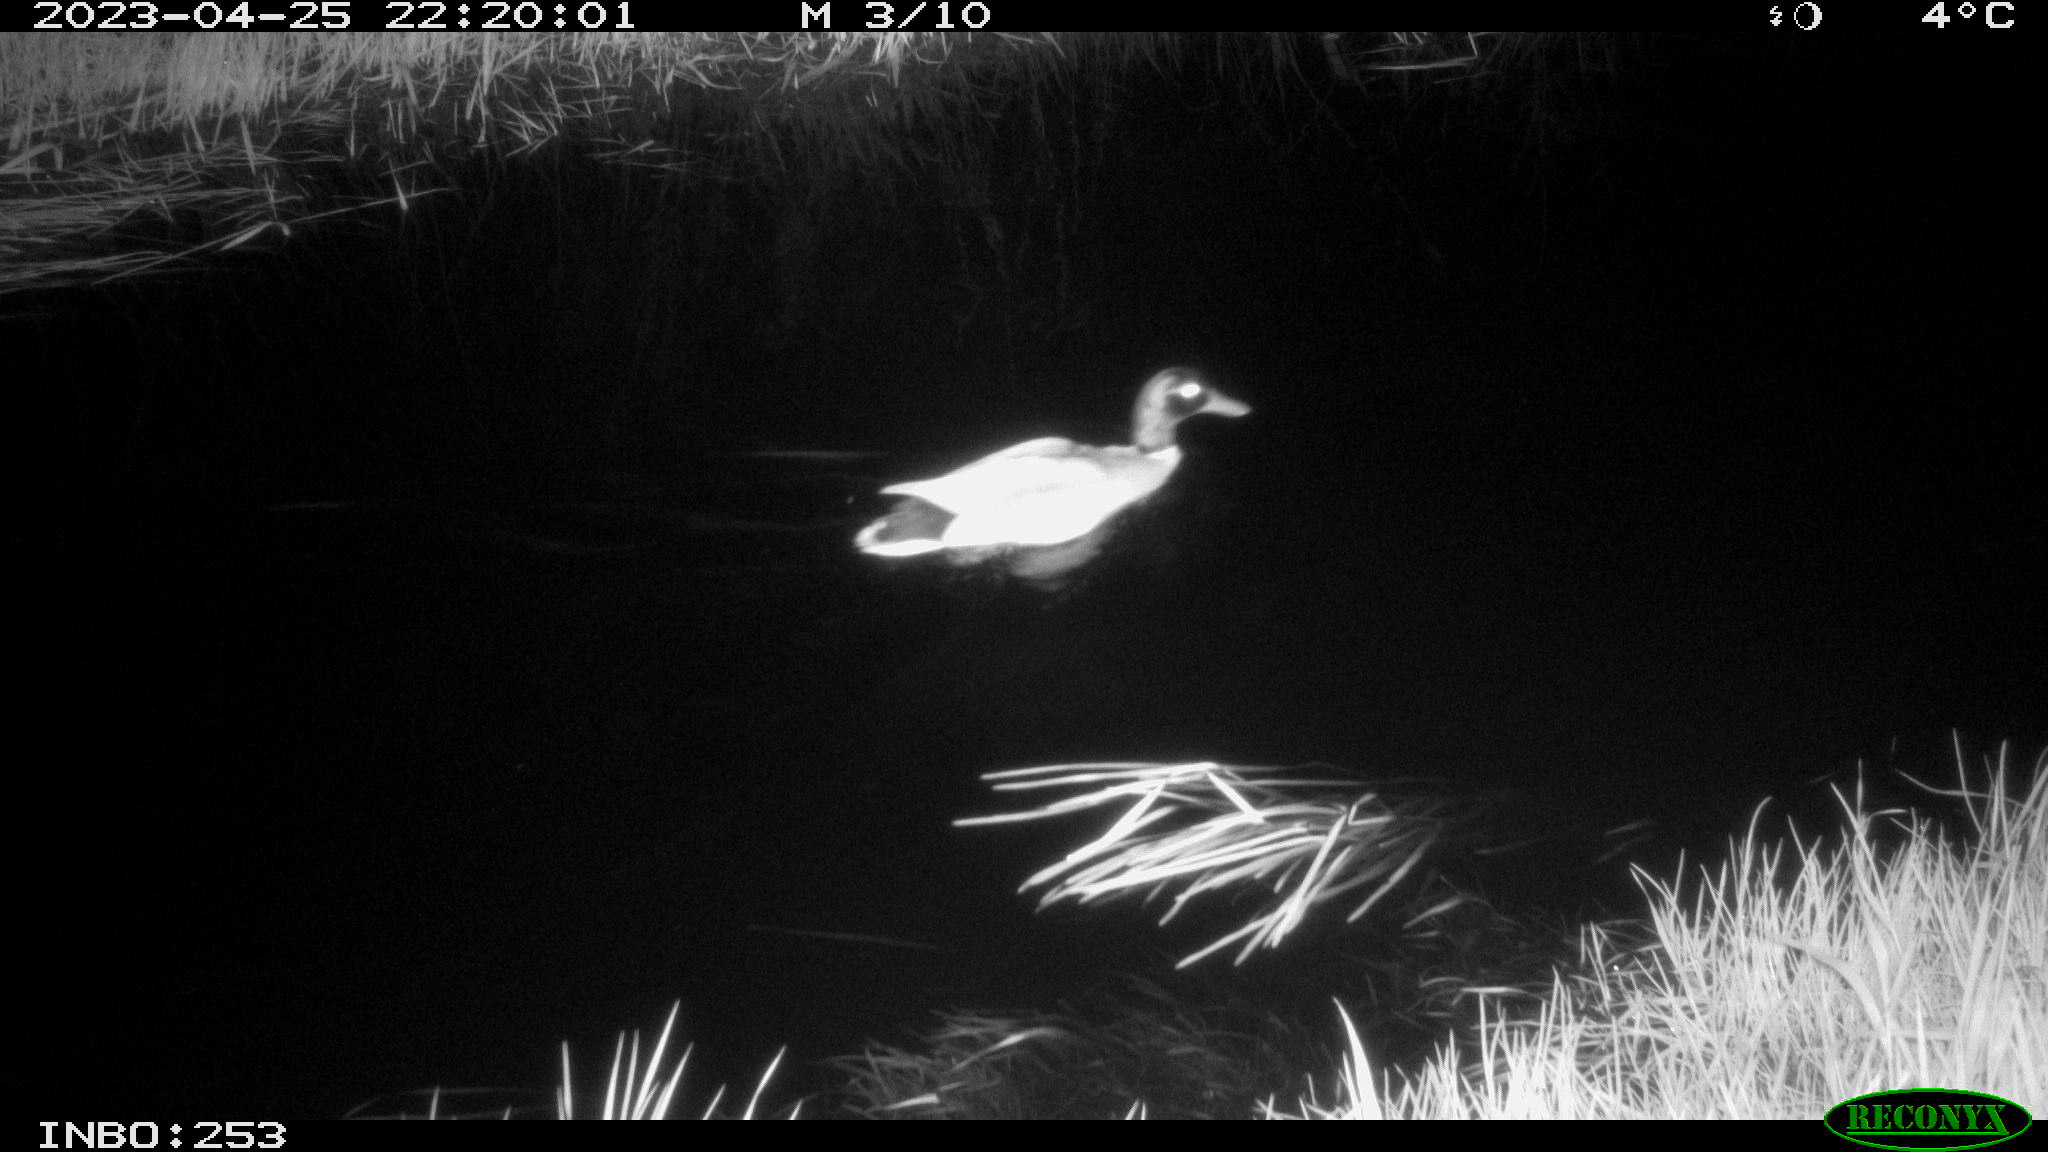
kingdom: Animalia
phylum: Chordata
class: Aves
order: Anseriformes
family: Anatidae
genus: Anas
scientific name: Anas
